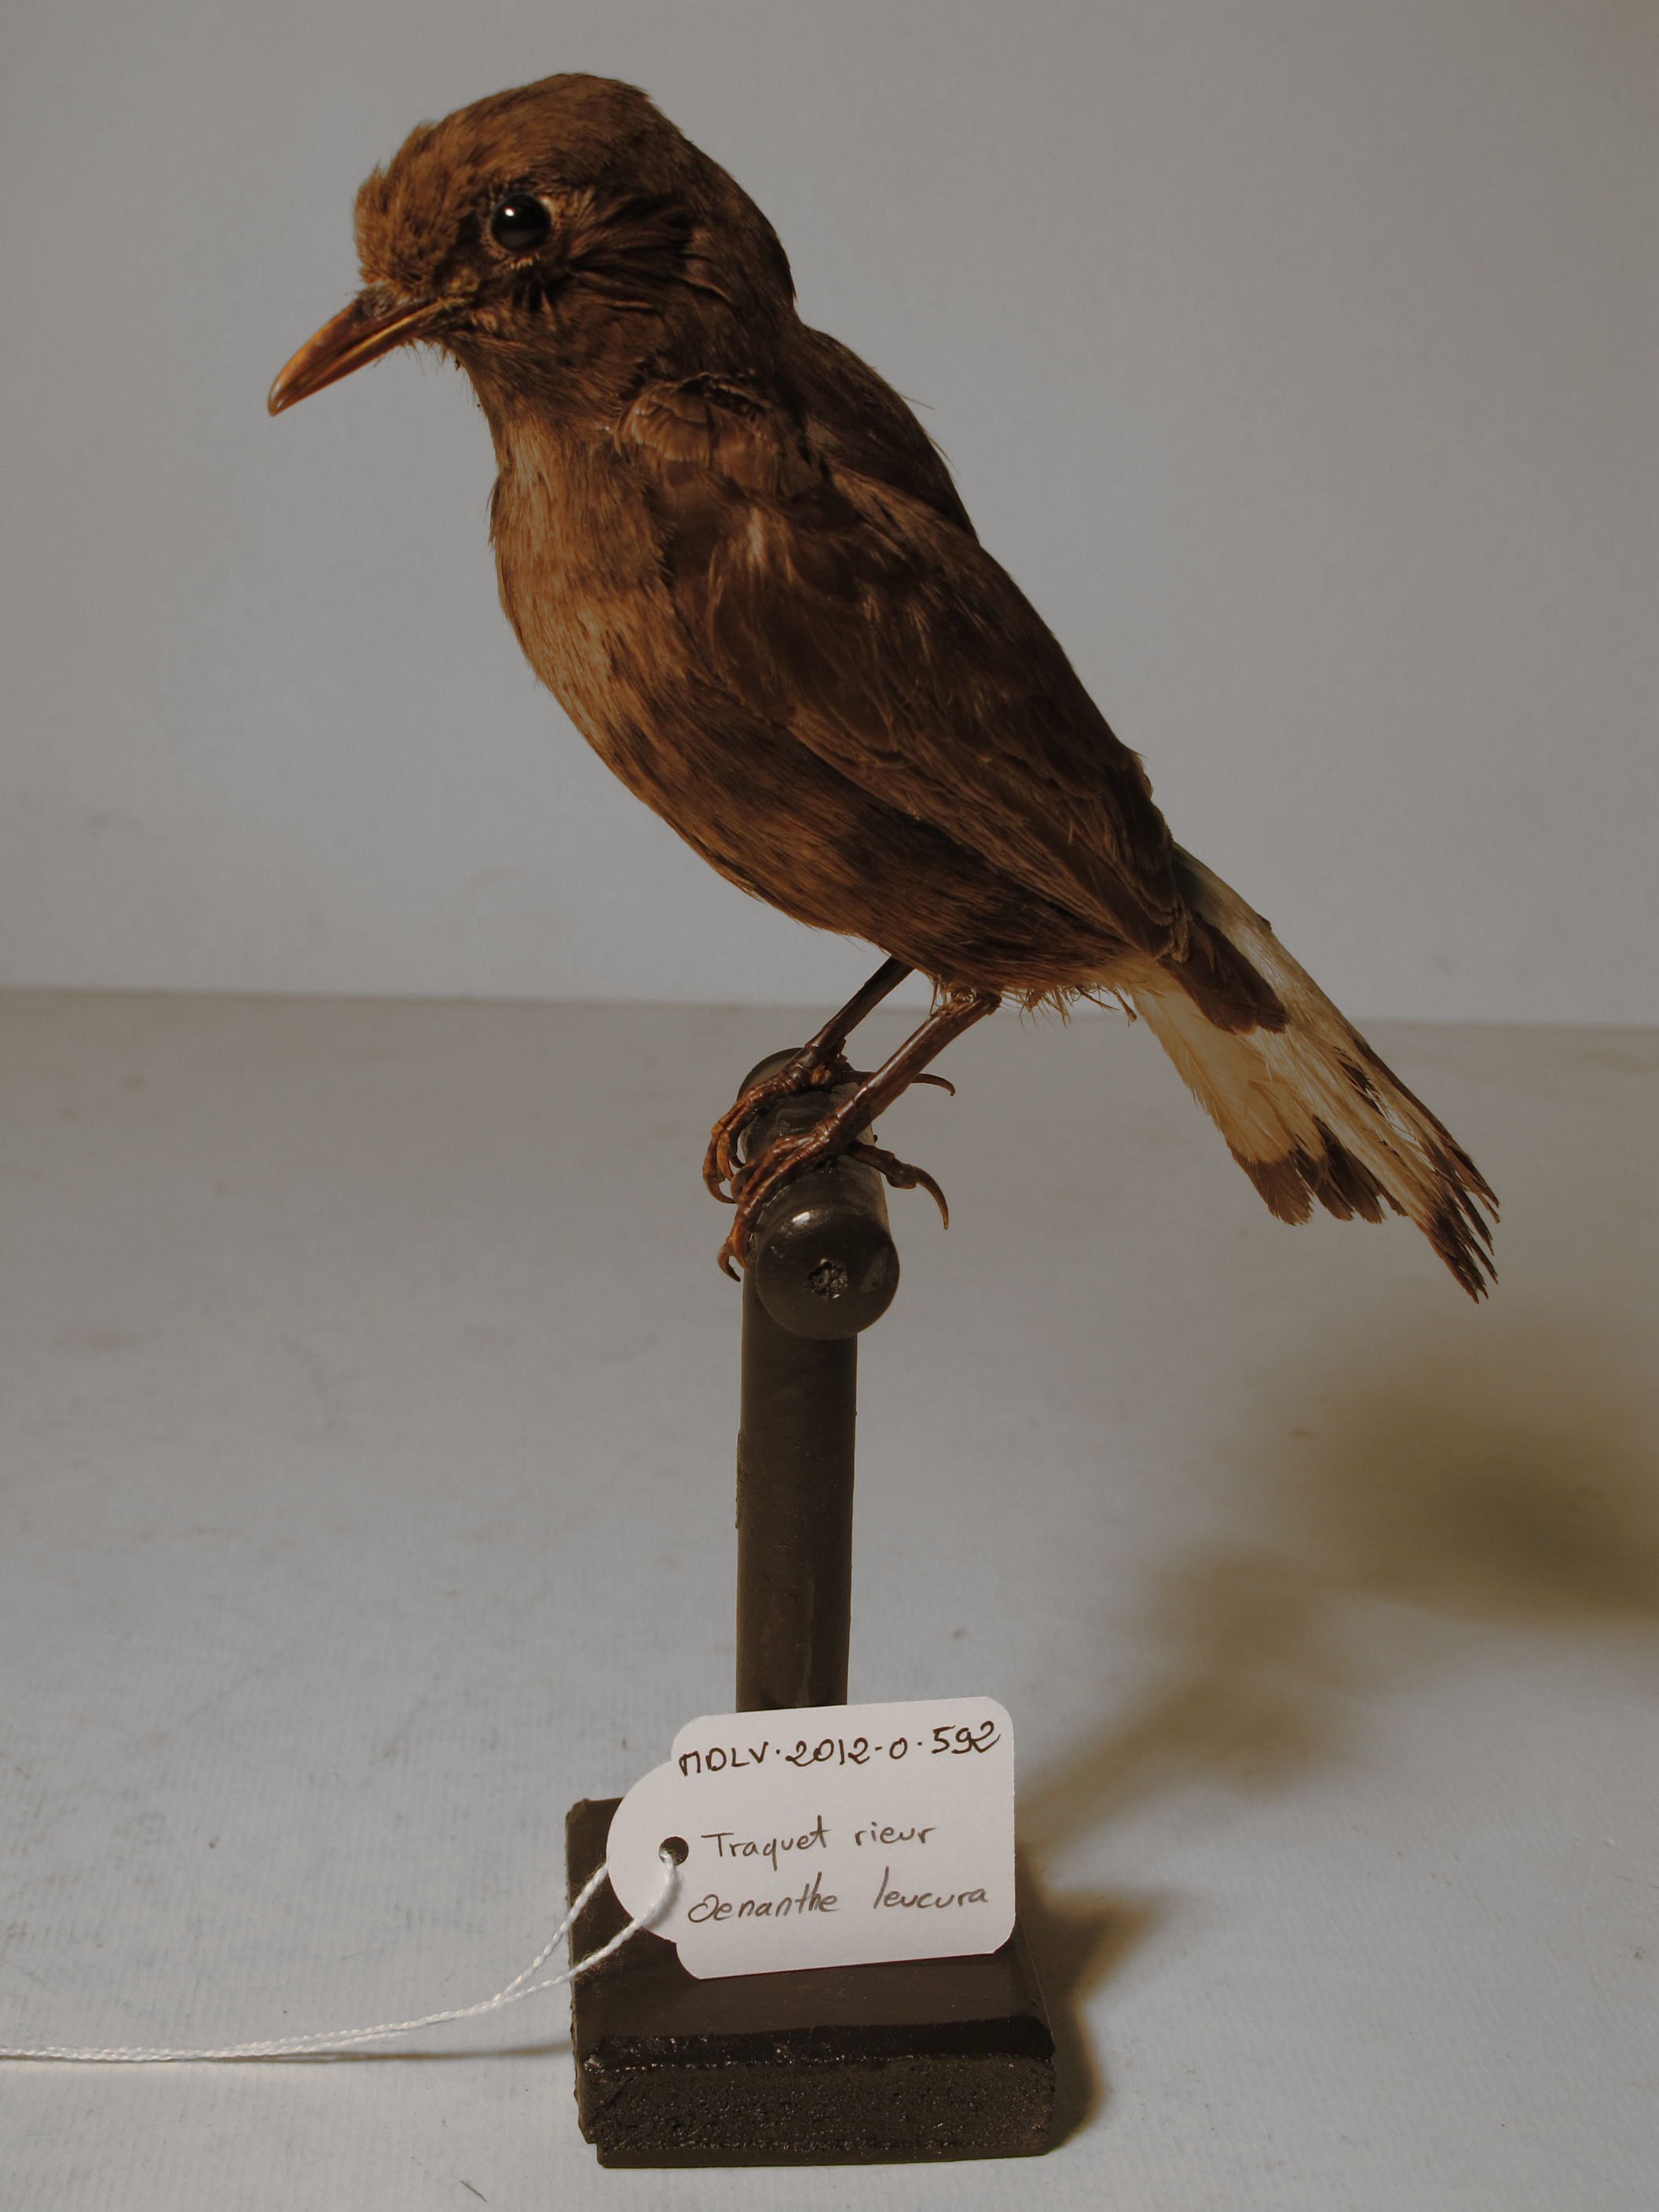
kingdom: Animalia
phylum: Chordata
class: Aves
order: Passeriformes
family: Muscicapidae
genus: Oenanthe
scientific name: Oenanthe leucura
